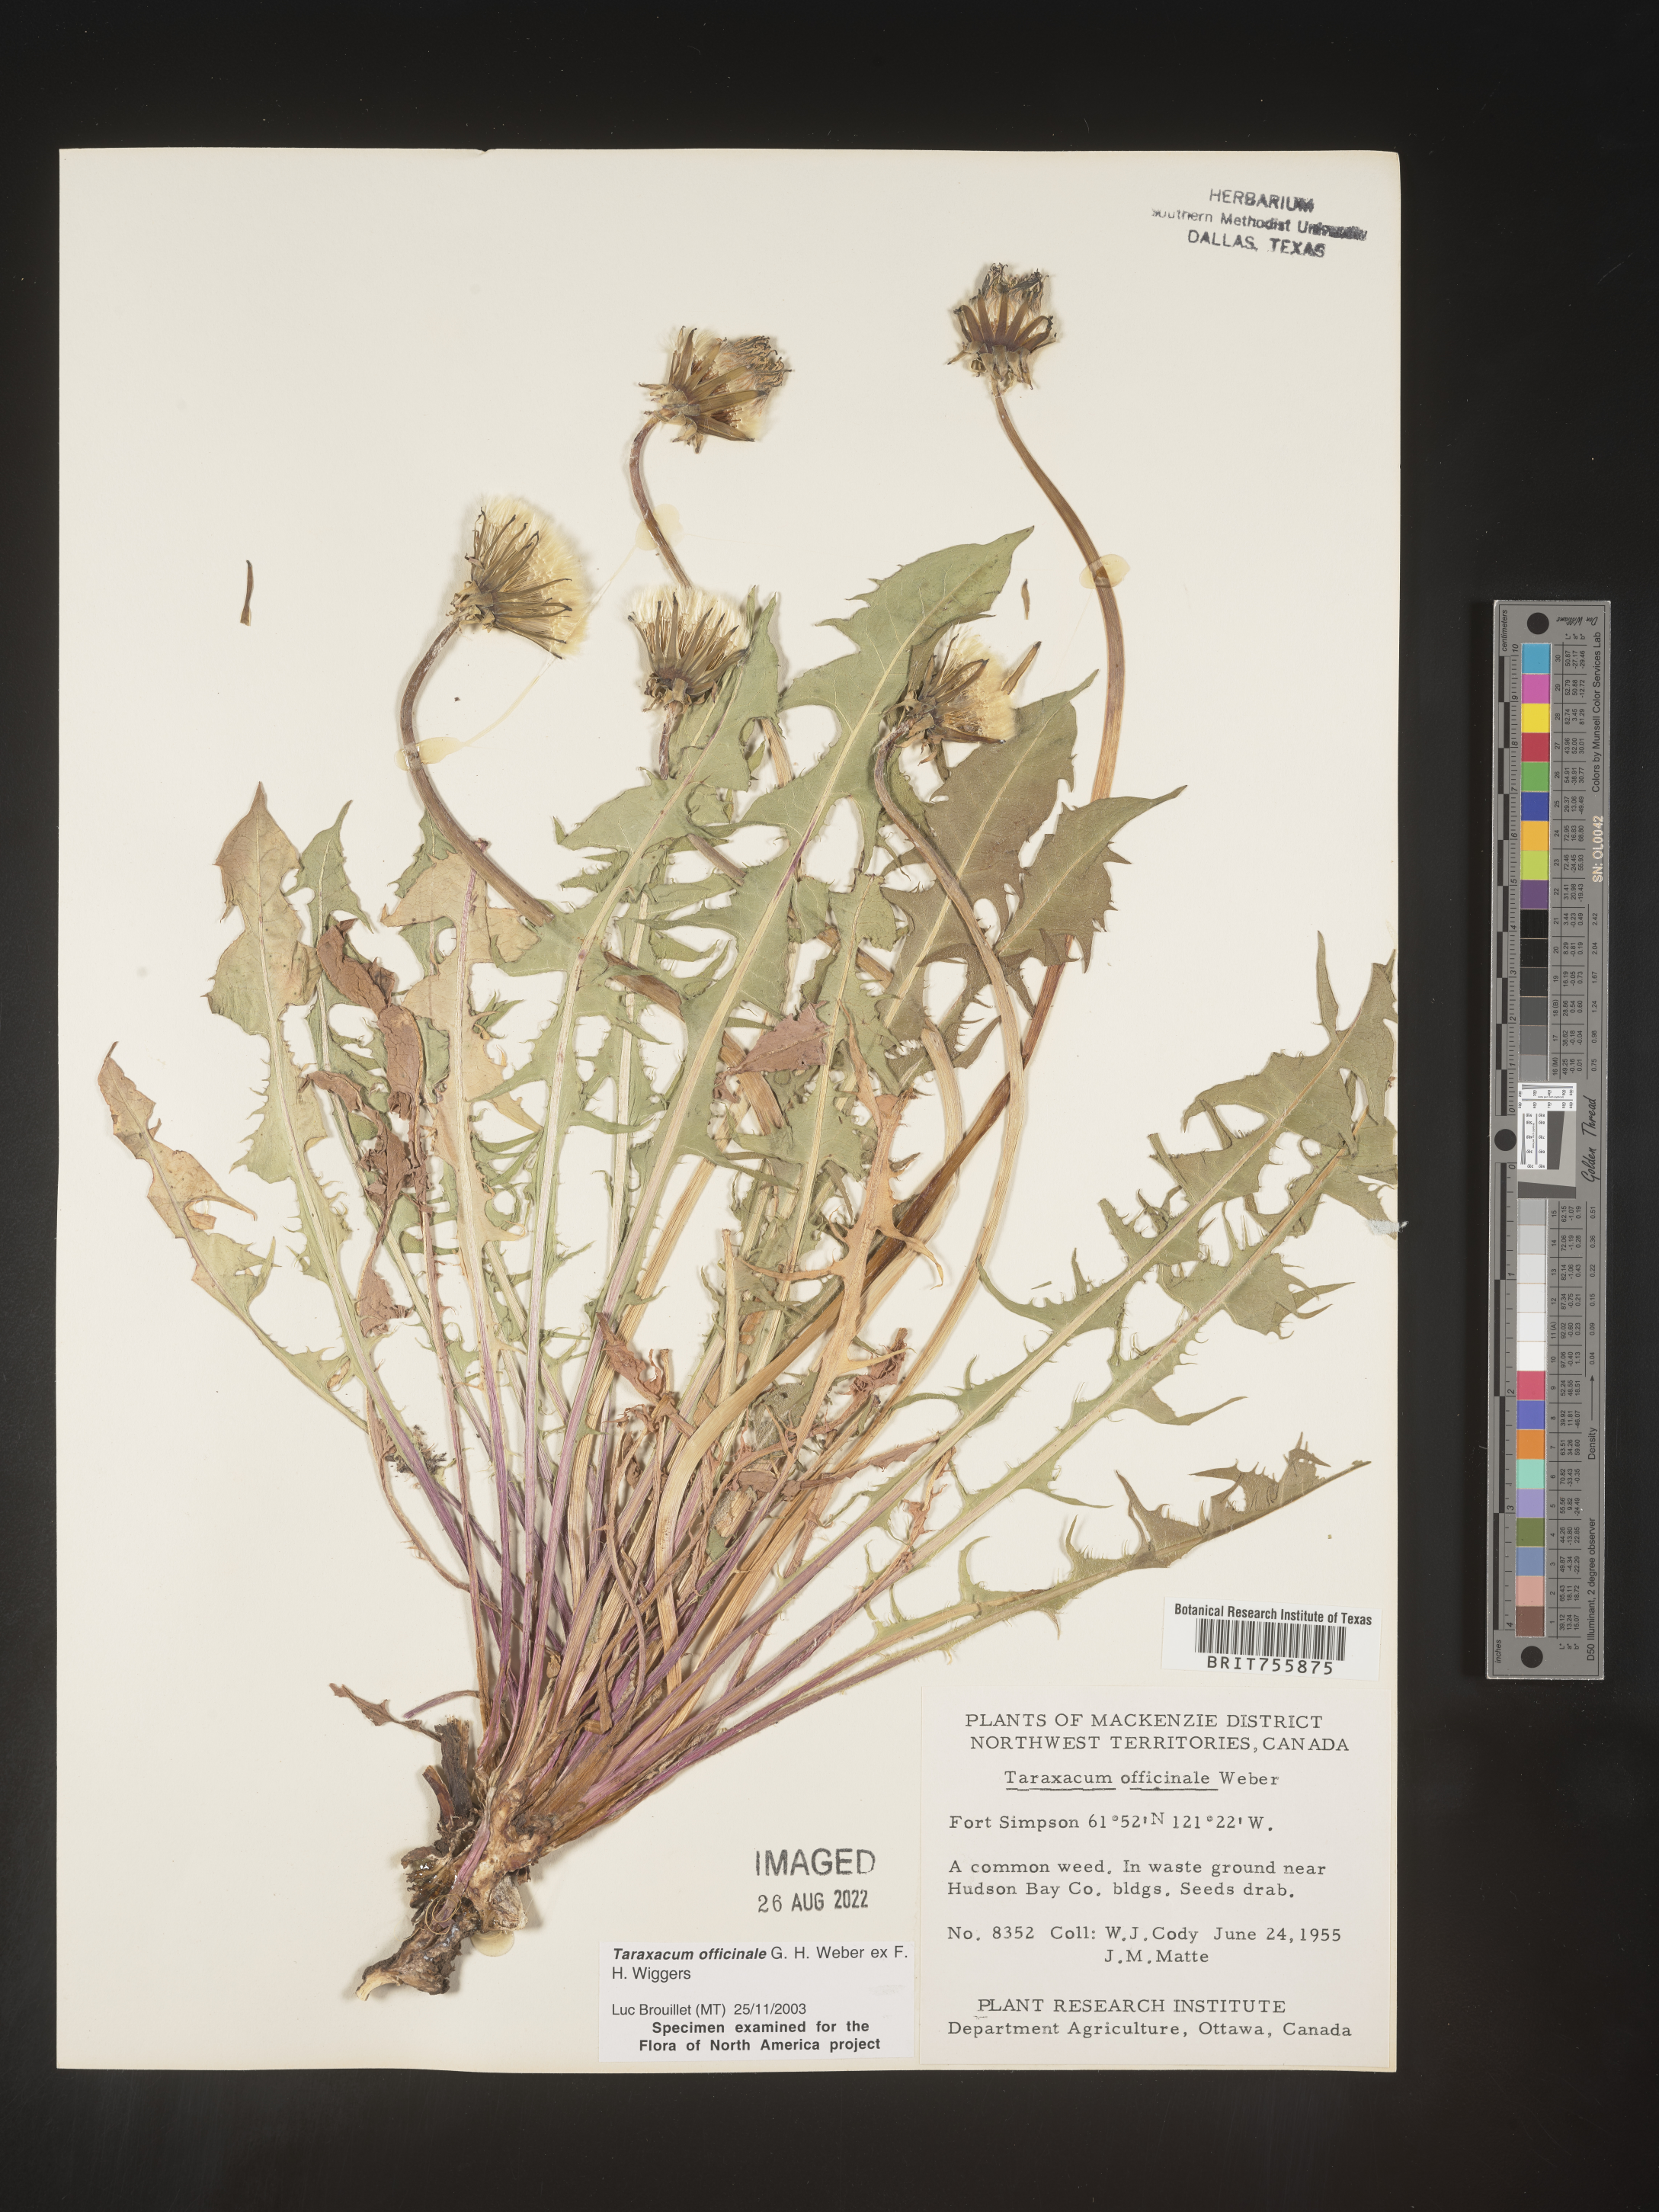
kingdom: Plantae
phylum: Tracheophyta
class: Magnoliopsida
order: Asterales
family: Asteraceae
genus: Taraxacum
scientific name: Taraxacum officinale
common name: Common dandelion
